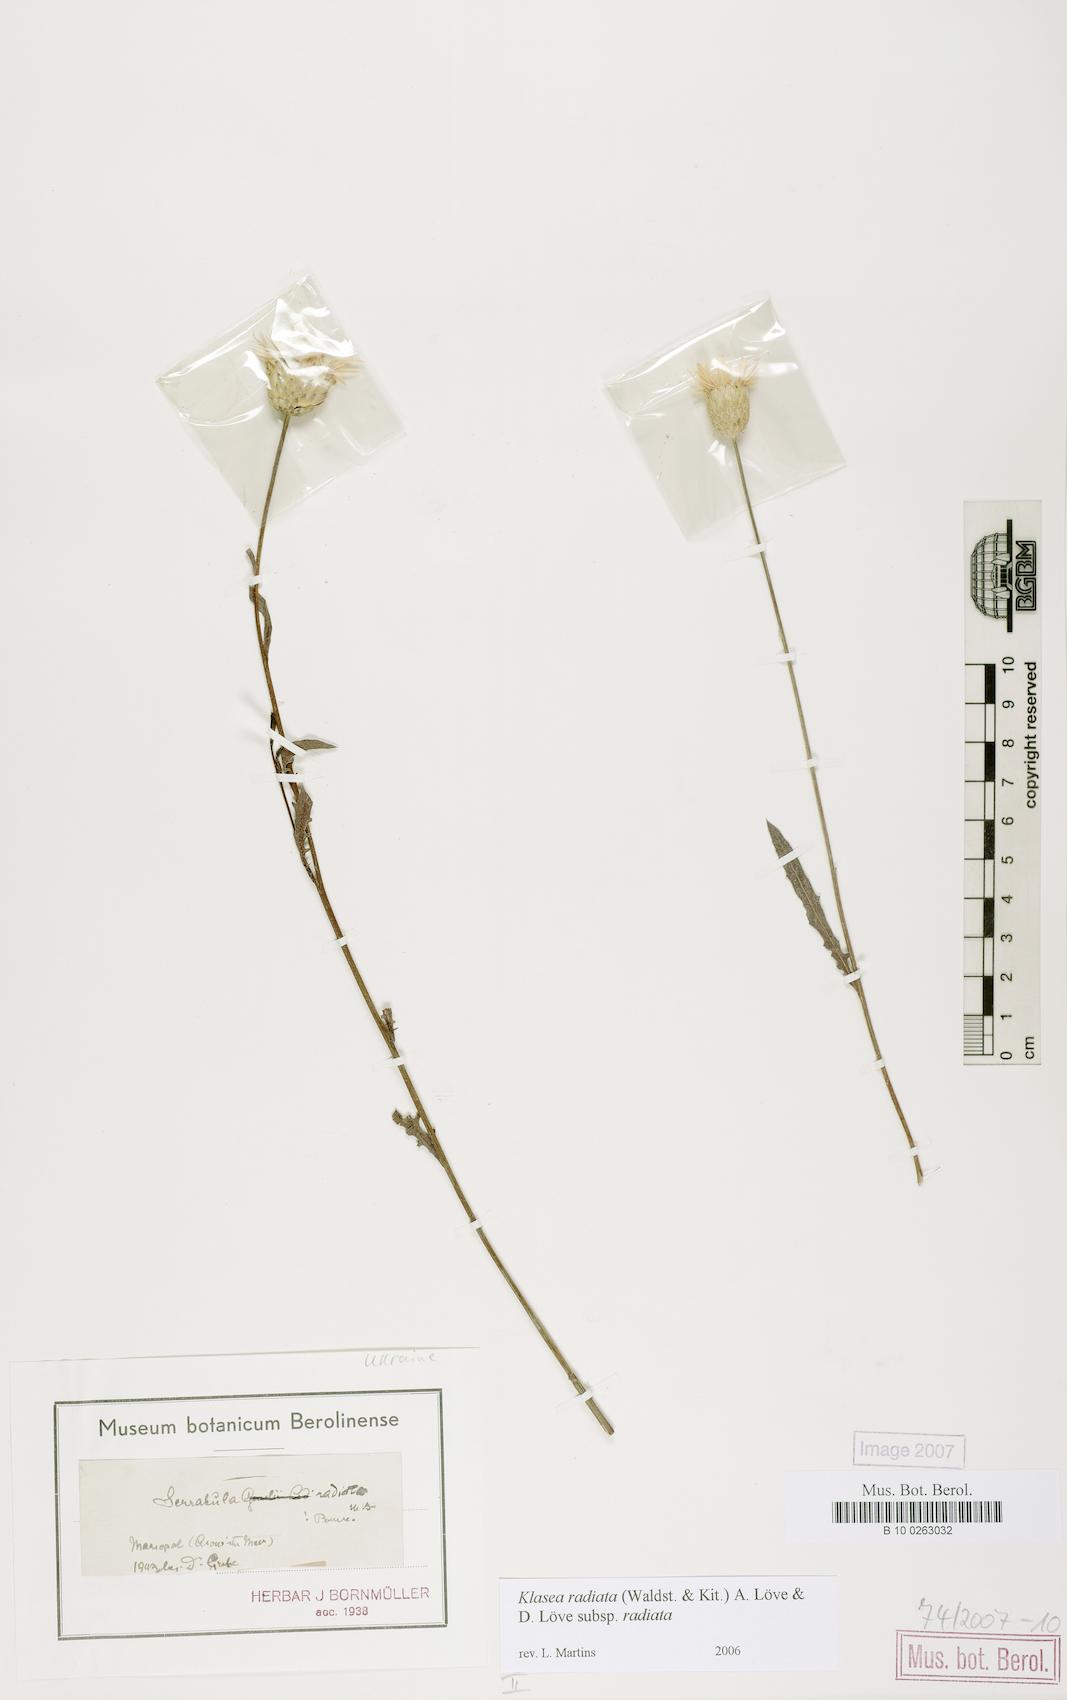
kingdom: Plantae
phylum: Tracheophyta
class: Magnoliopsida
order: Asterales
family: Asteraceae
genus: Klasea
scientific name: Klasea radiata
